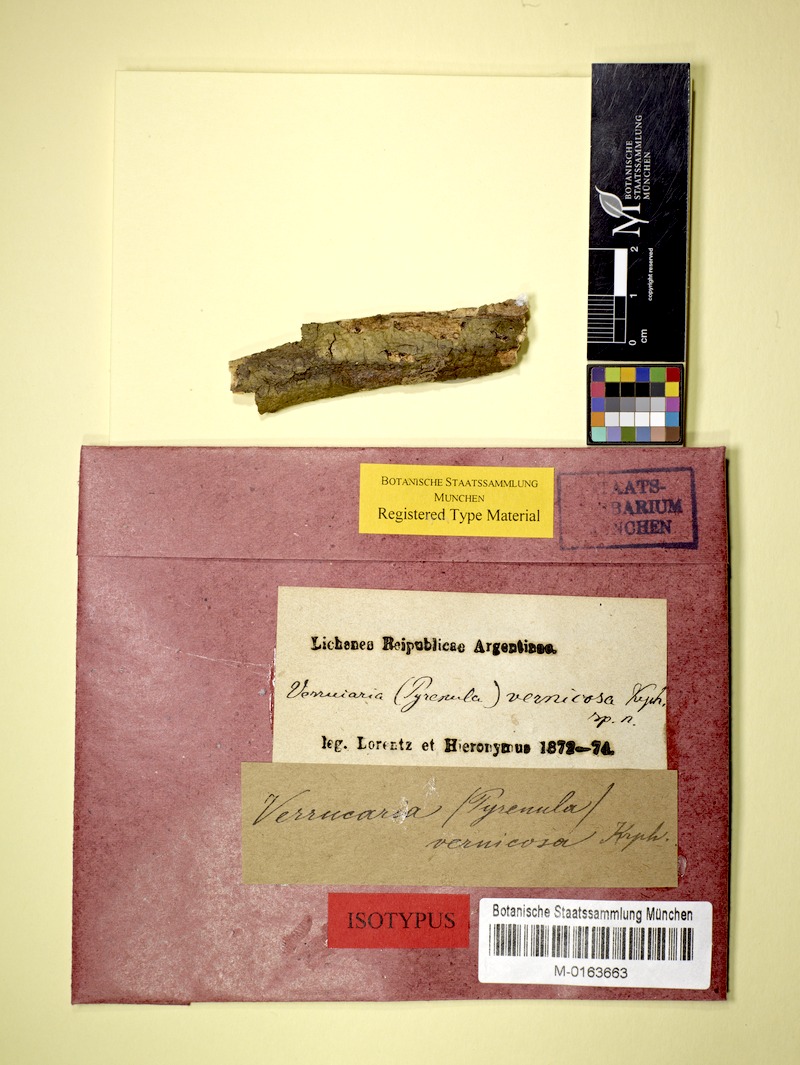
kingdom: Fungi
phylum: Ascomycota
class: Eurotiomycetes
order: Pyrenulales
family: Pyrenulaceae
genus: Pyrenula
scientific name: Pyrenula
